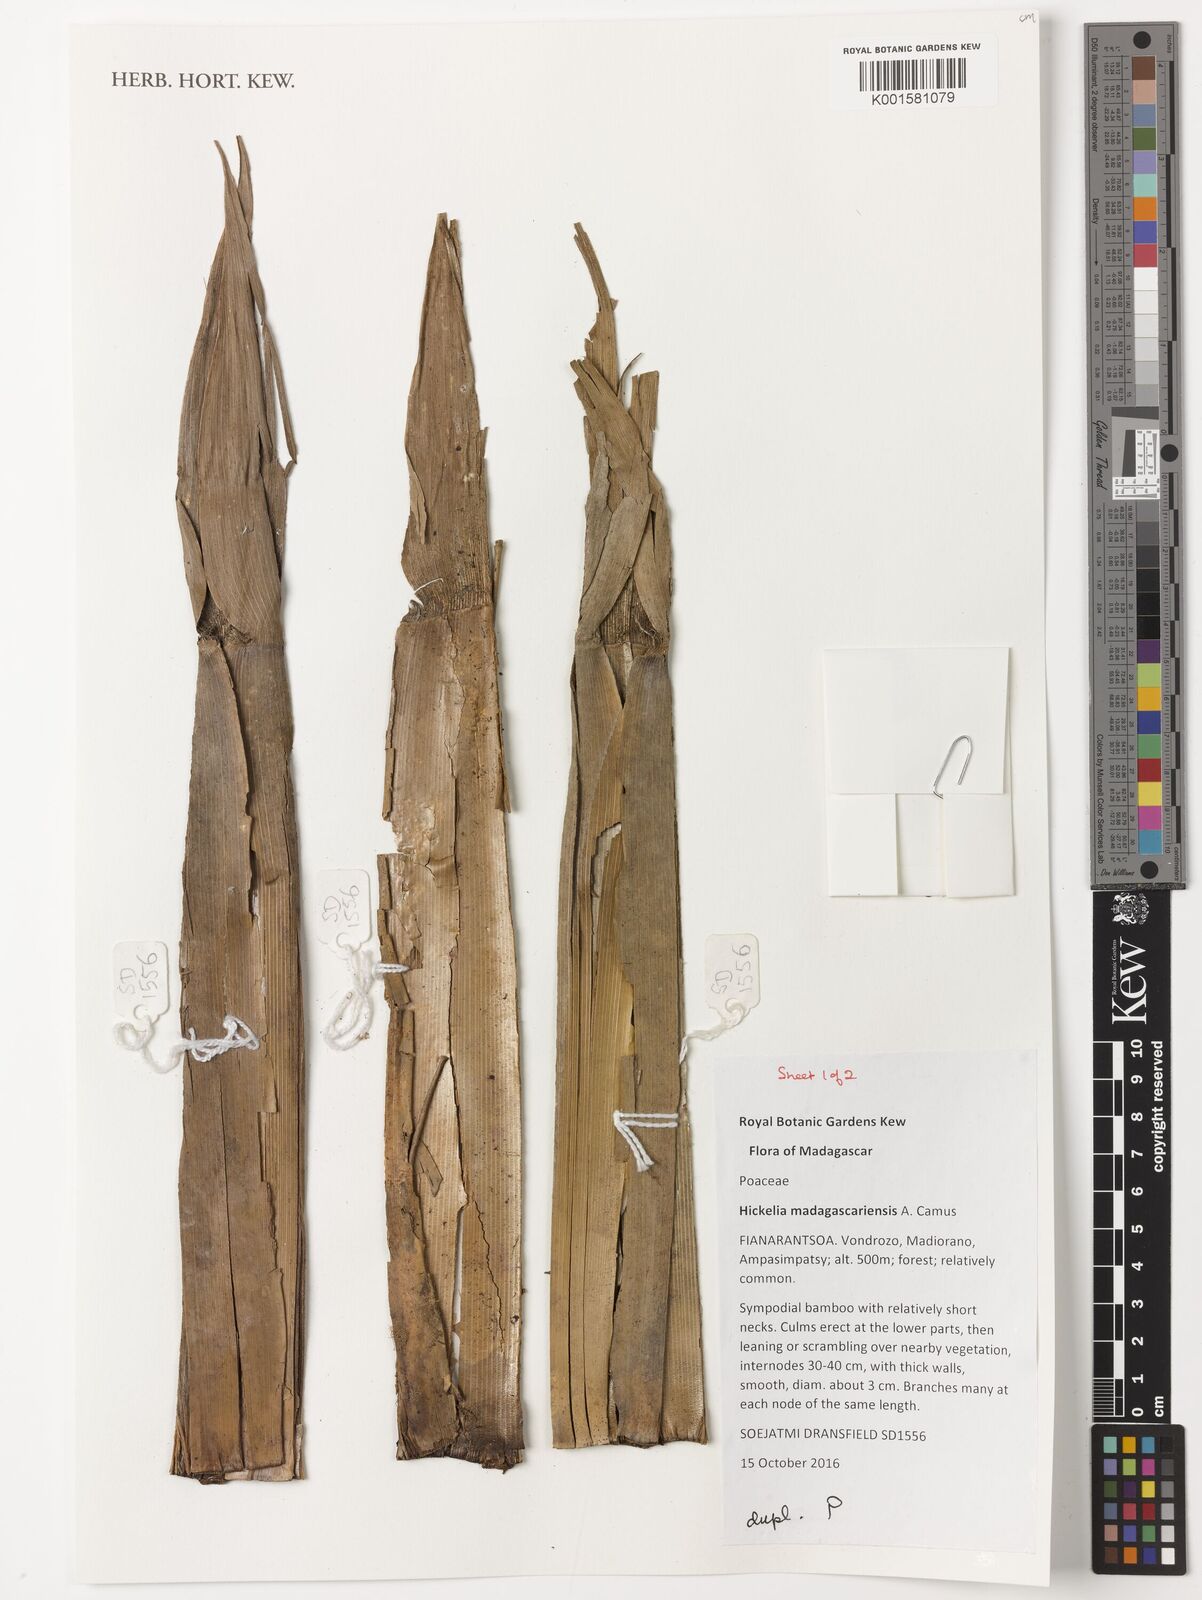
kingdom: Plantae
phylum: Tracheophyta
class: Liliopsida
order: Poales
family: Poaceae
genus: Hickelia
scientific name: Hickelia madagascariensis
